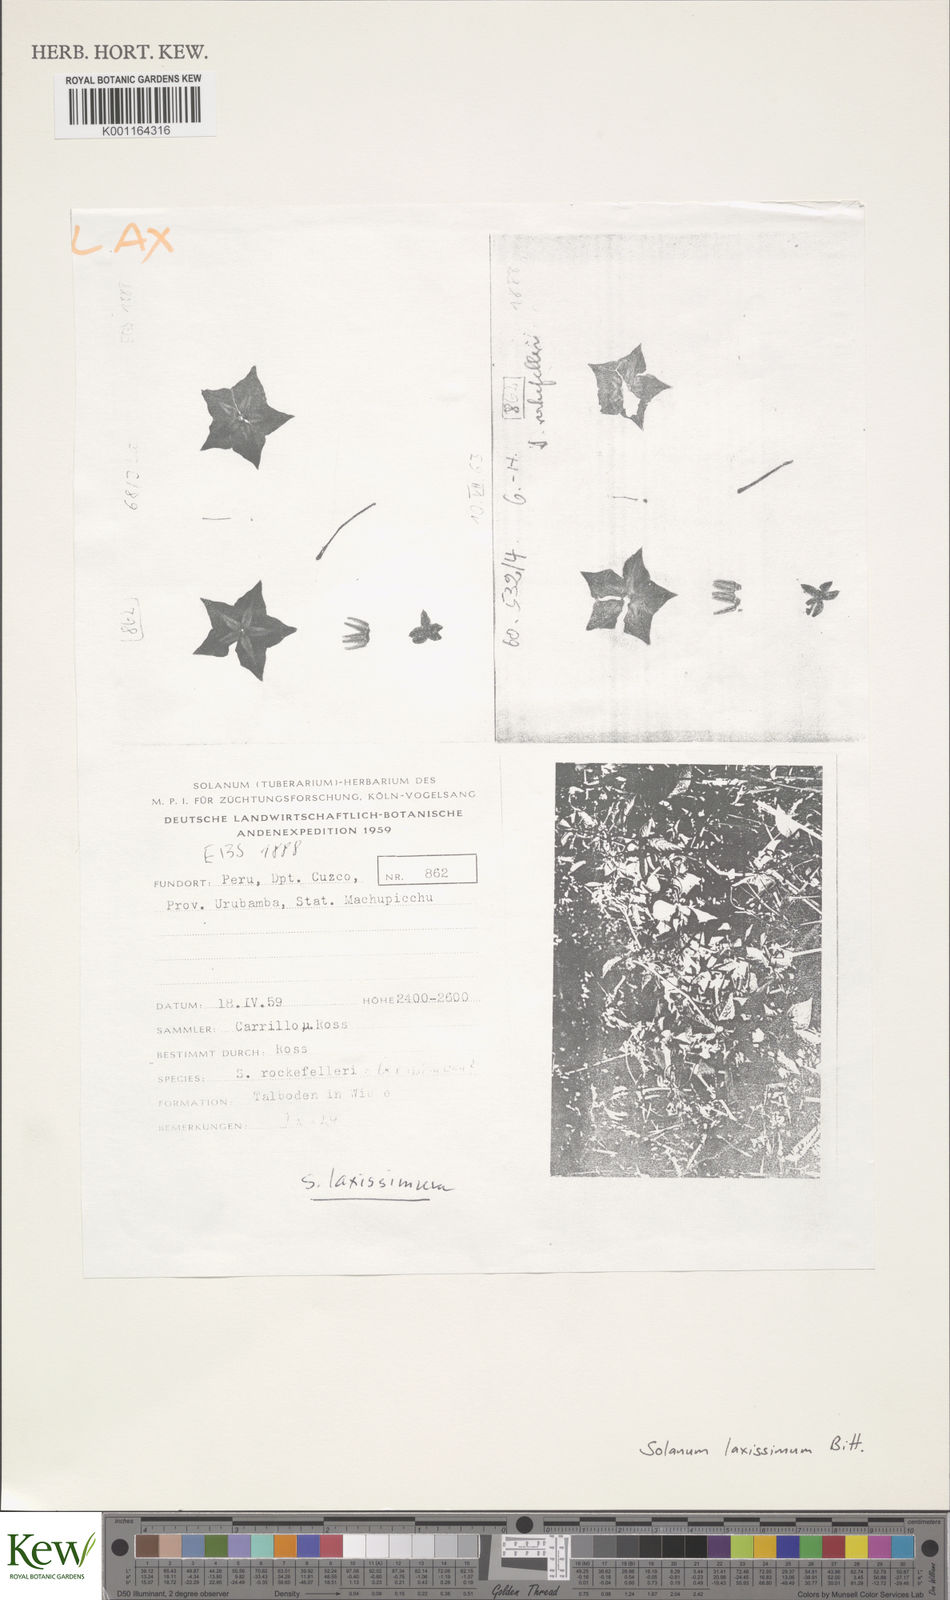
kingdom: Plantae
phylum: Tracheophyta
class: Magnoliopsida
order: Solanales
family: Solanaceae
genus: Solanum
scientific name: Solanum laxissimum
